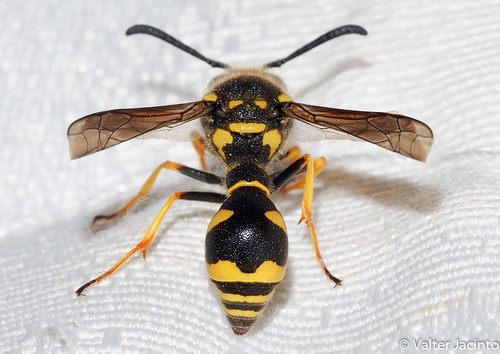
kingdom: Animalia
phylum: Arthropoda
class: Insecta
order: Hymenoptera
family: Vespidae
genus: Eumenes
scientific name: Eumenes coarctatus
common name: Heath potter wasp
